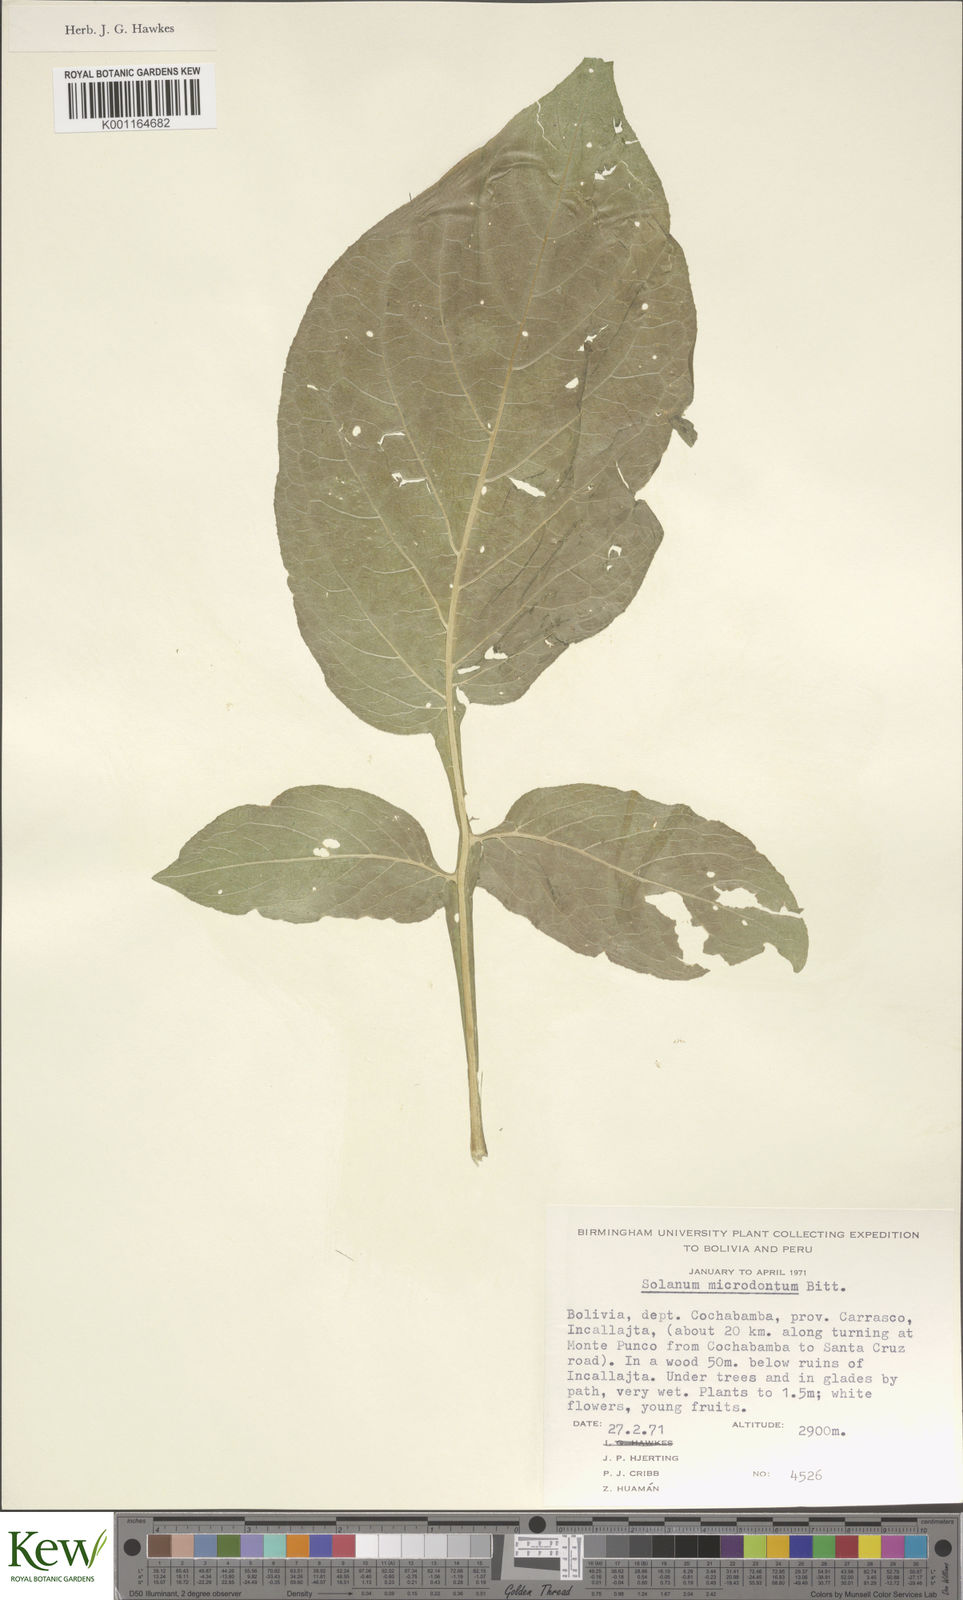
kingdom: Plantae
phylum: Tracheophyta
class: Magnoliopsida
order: Solanales
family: Solanaceae
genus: Solanum
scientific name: Solanum microdontum
